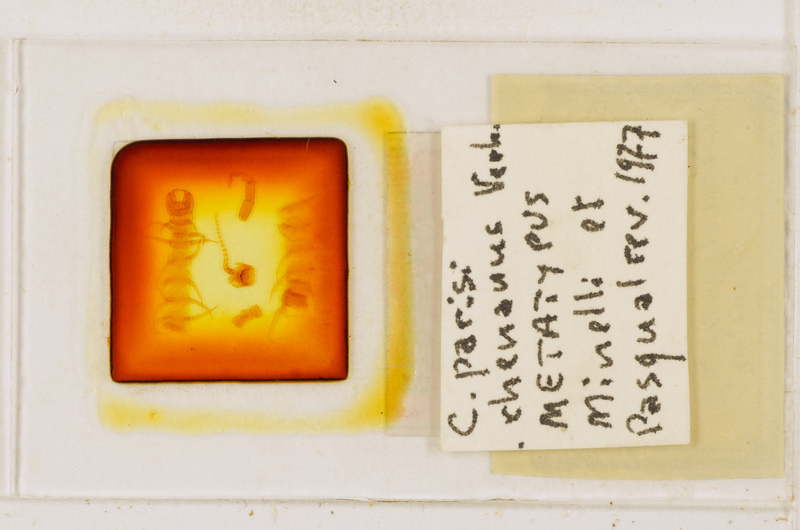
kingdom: Animalia
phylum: Arthropoda
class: Chilopoda
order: Scolopendromorpha
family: Cryptopidae
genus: Cryptops
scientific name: Cryptops parisi
